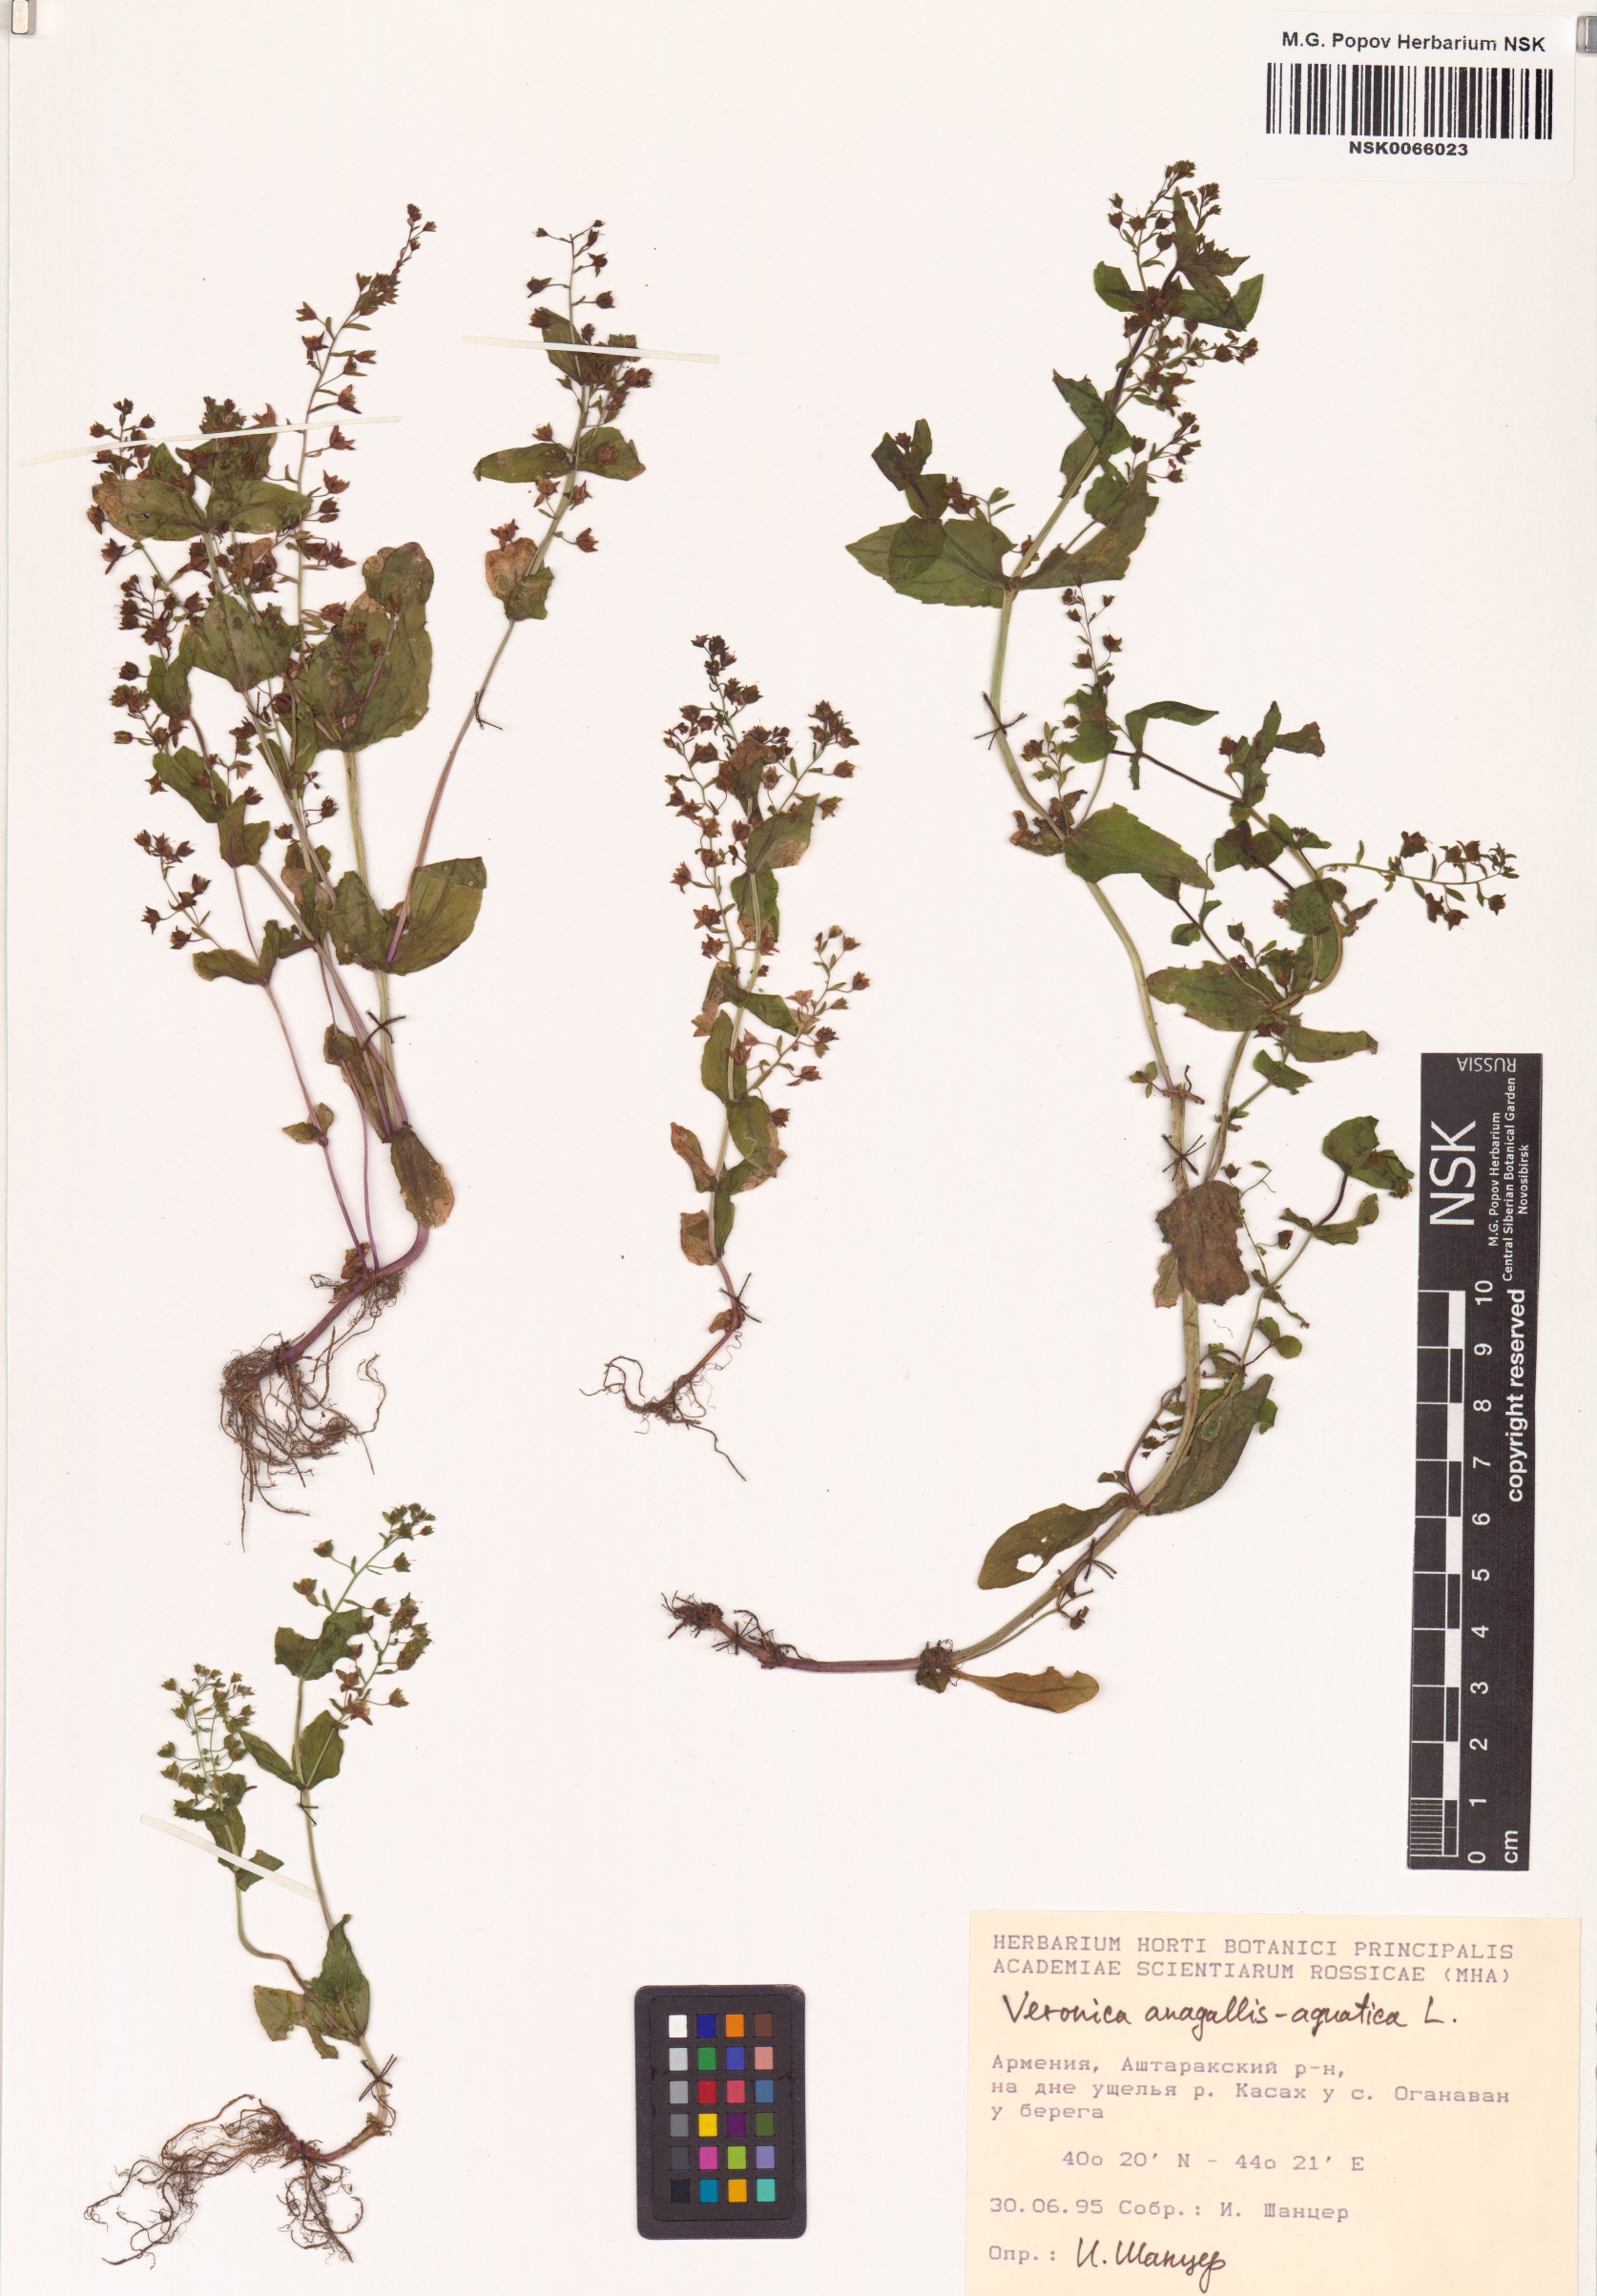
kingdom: Plantae
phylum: Tracheophyta
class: Magnoliopsida
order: Lamiales
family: Plantaginaceae
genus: Veronica
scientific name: Veronica anagallis-aquatica
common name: Water speedwell
